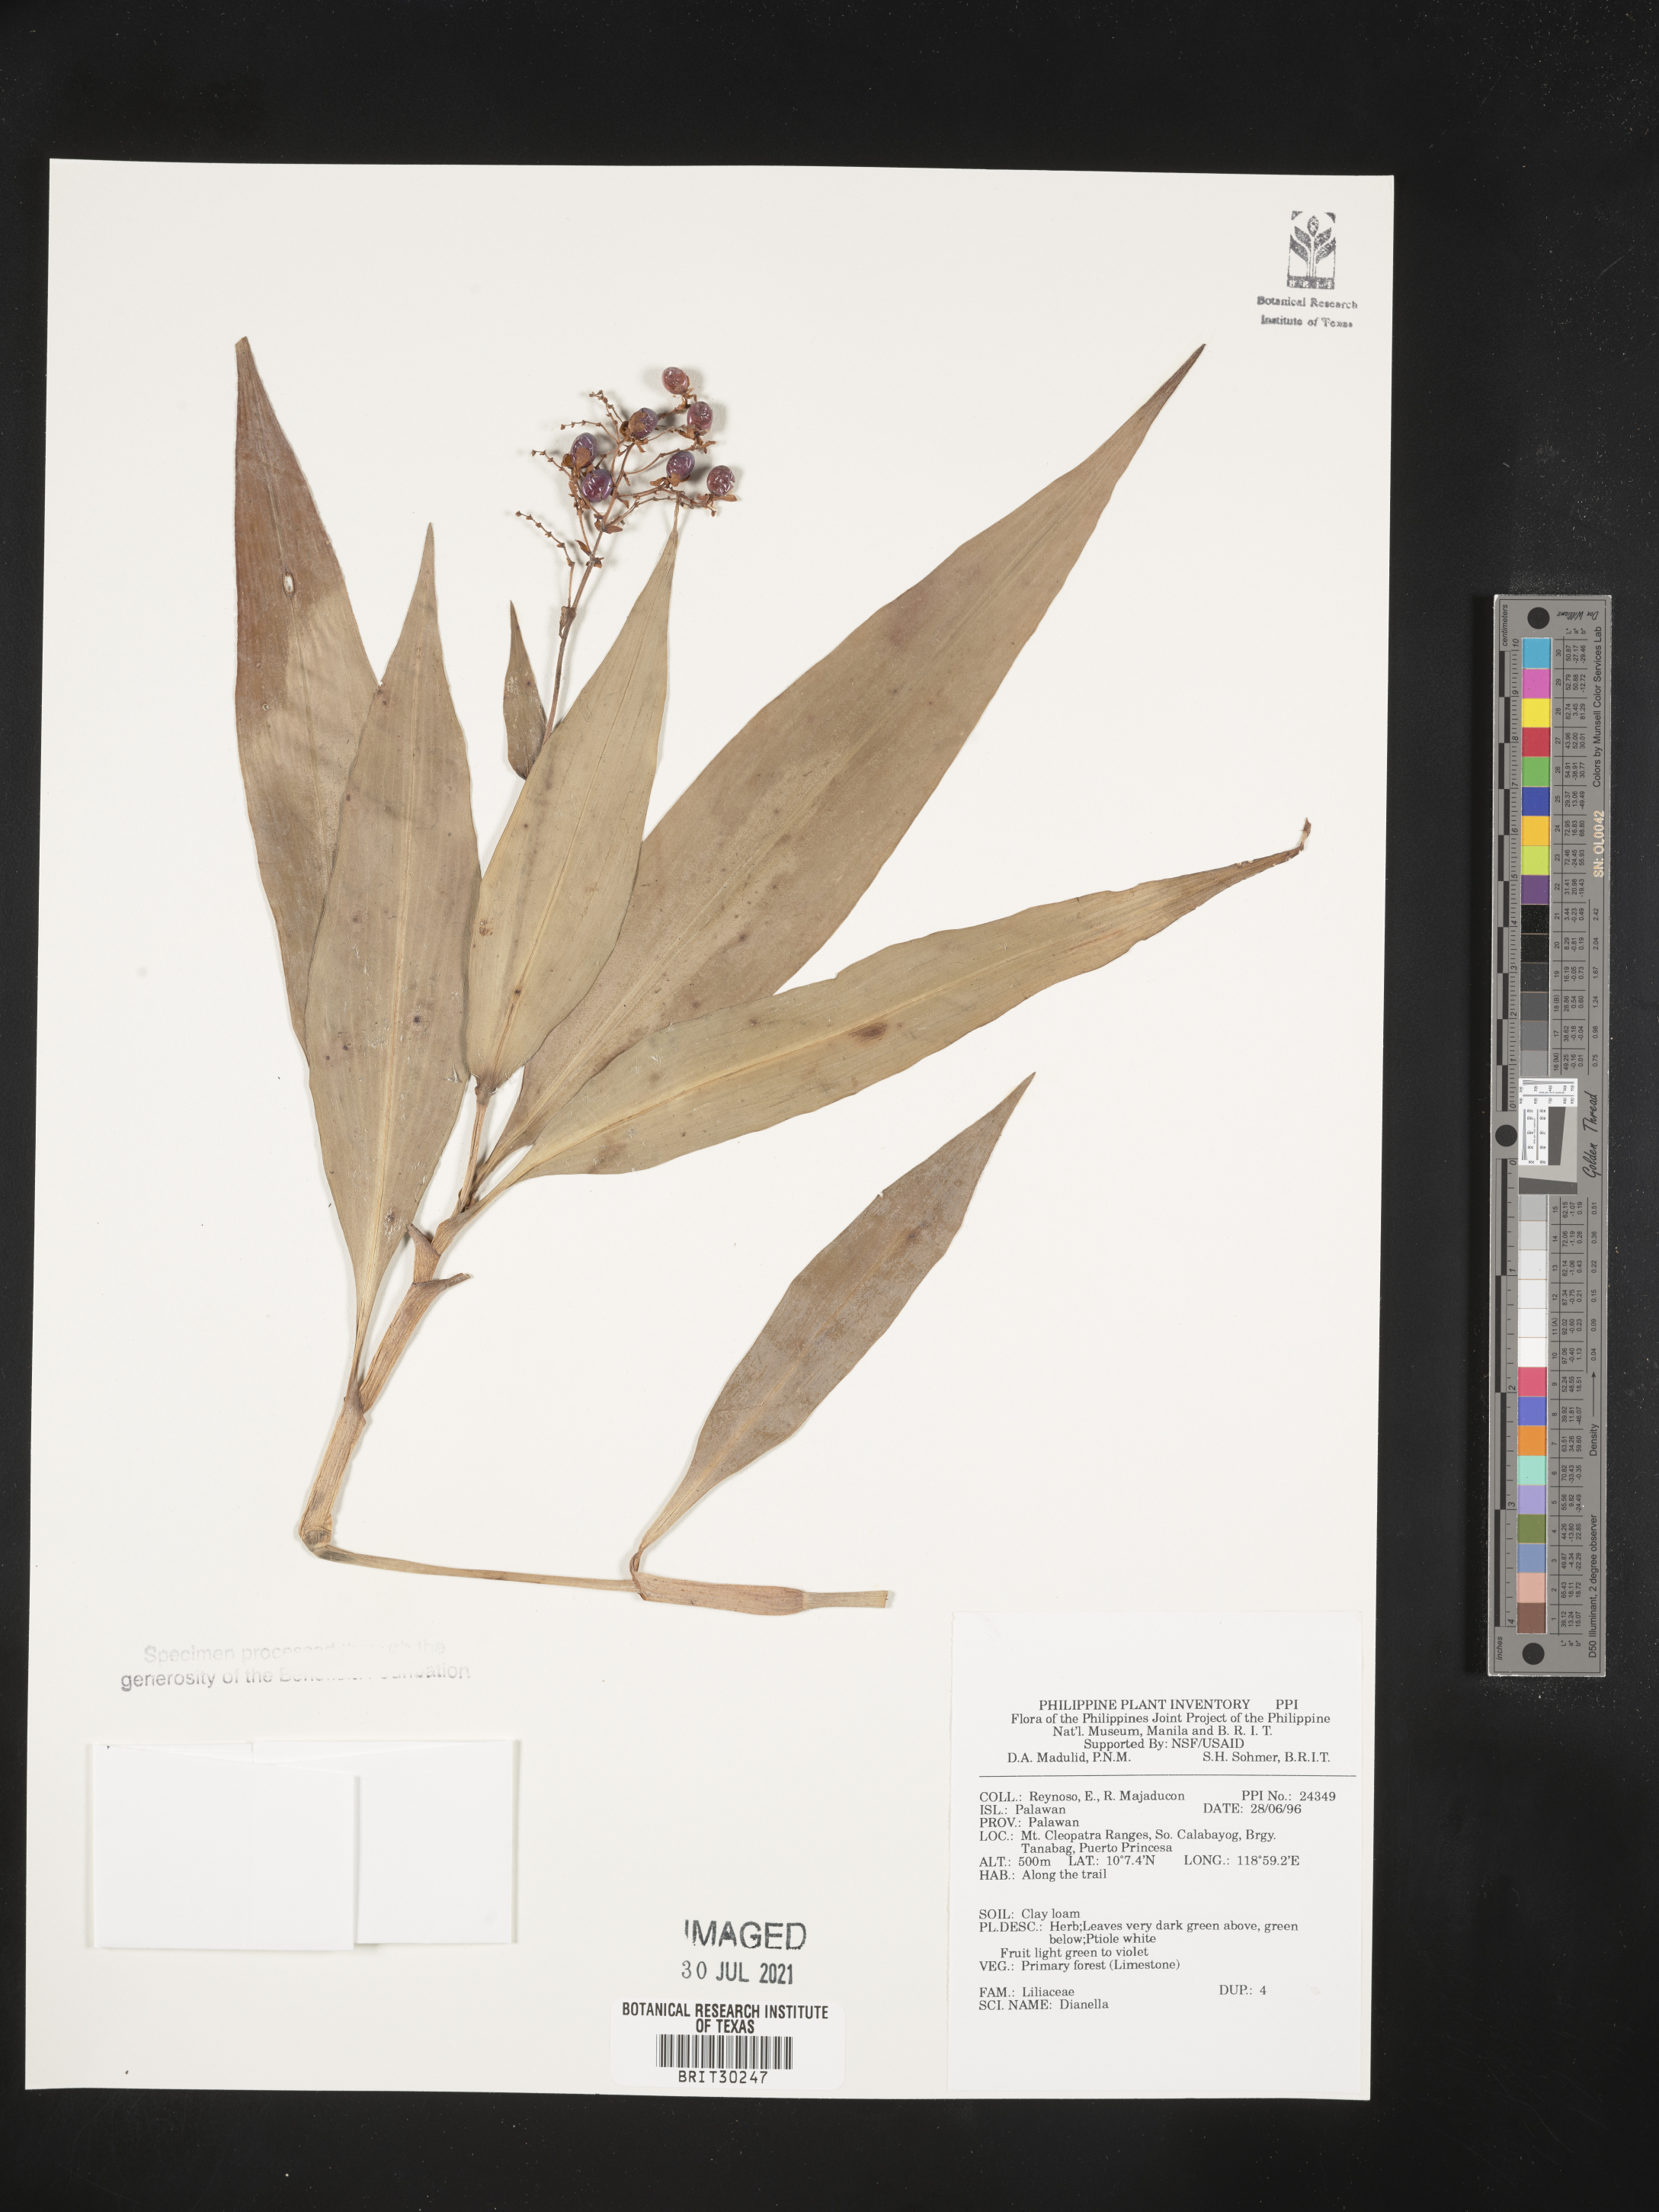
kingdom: Plantae
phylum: Tracheophyta
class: Liliopsida
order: Liliales
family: Liliaceae
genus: Dianella
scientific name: Dianella
